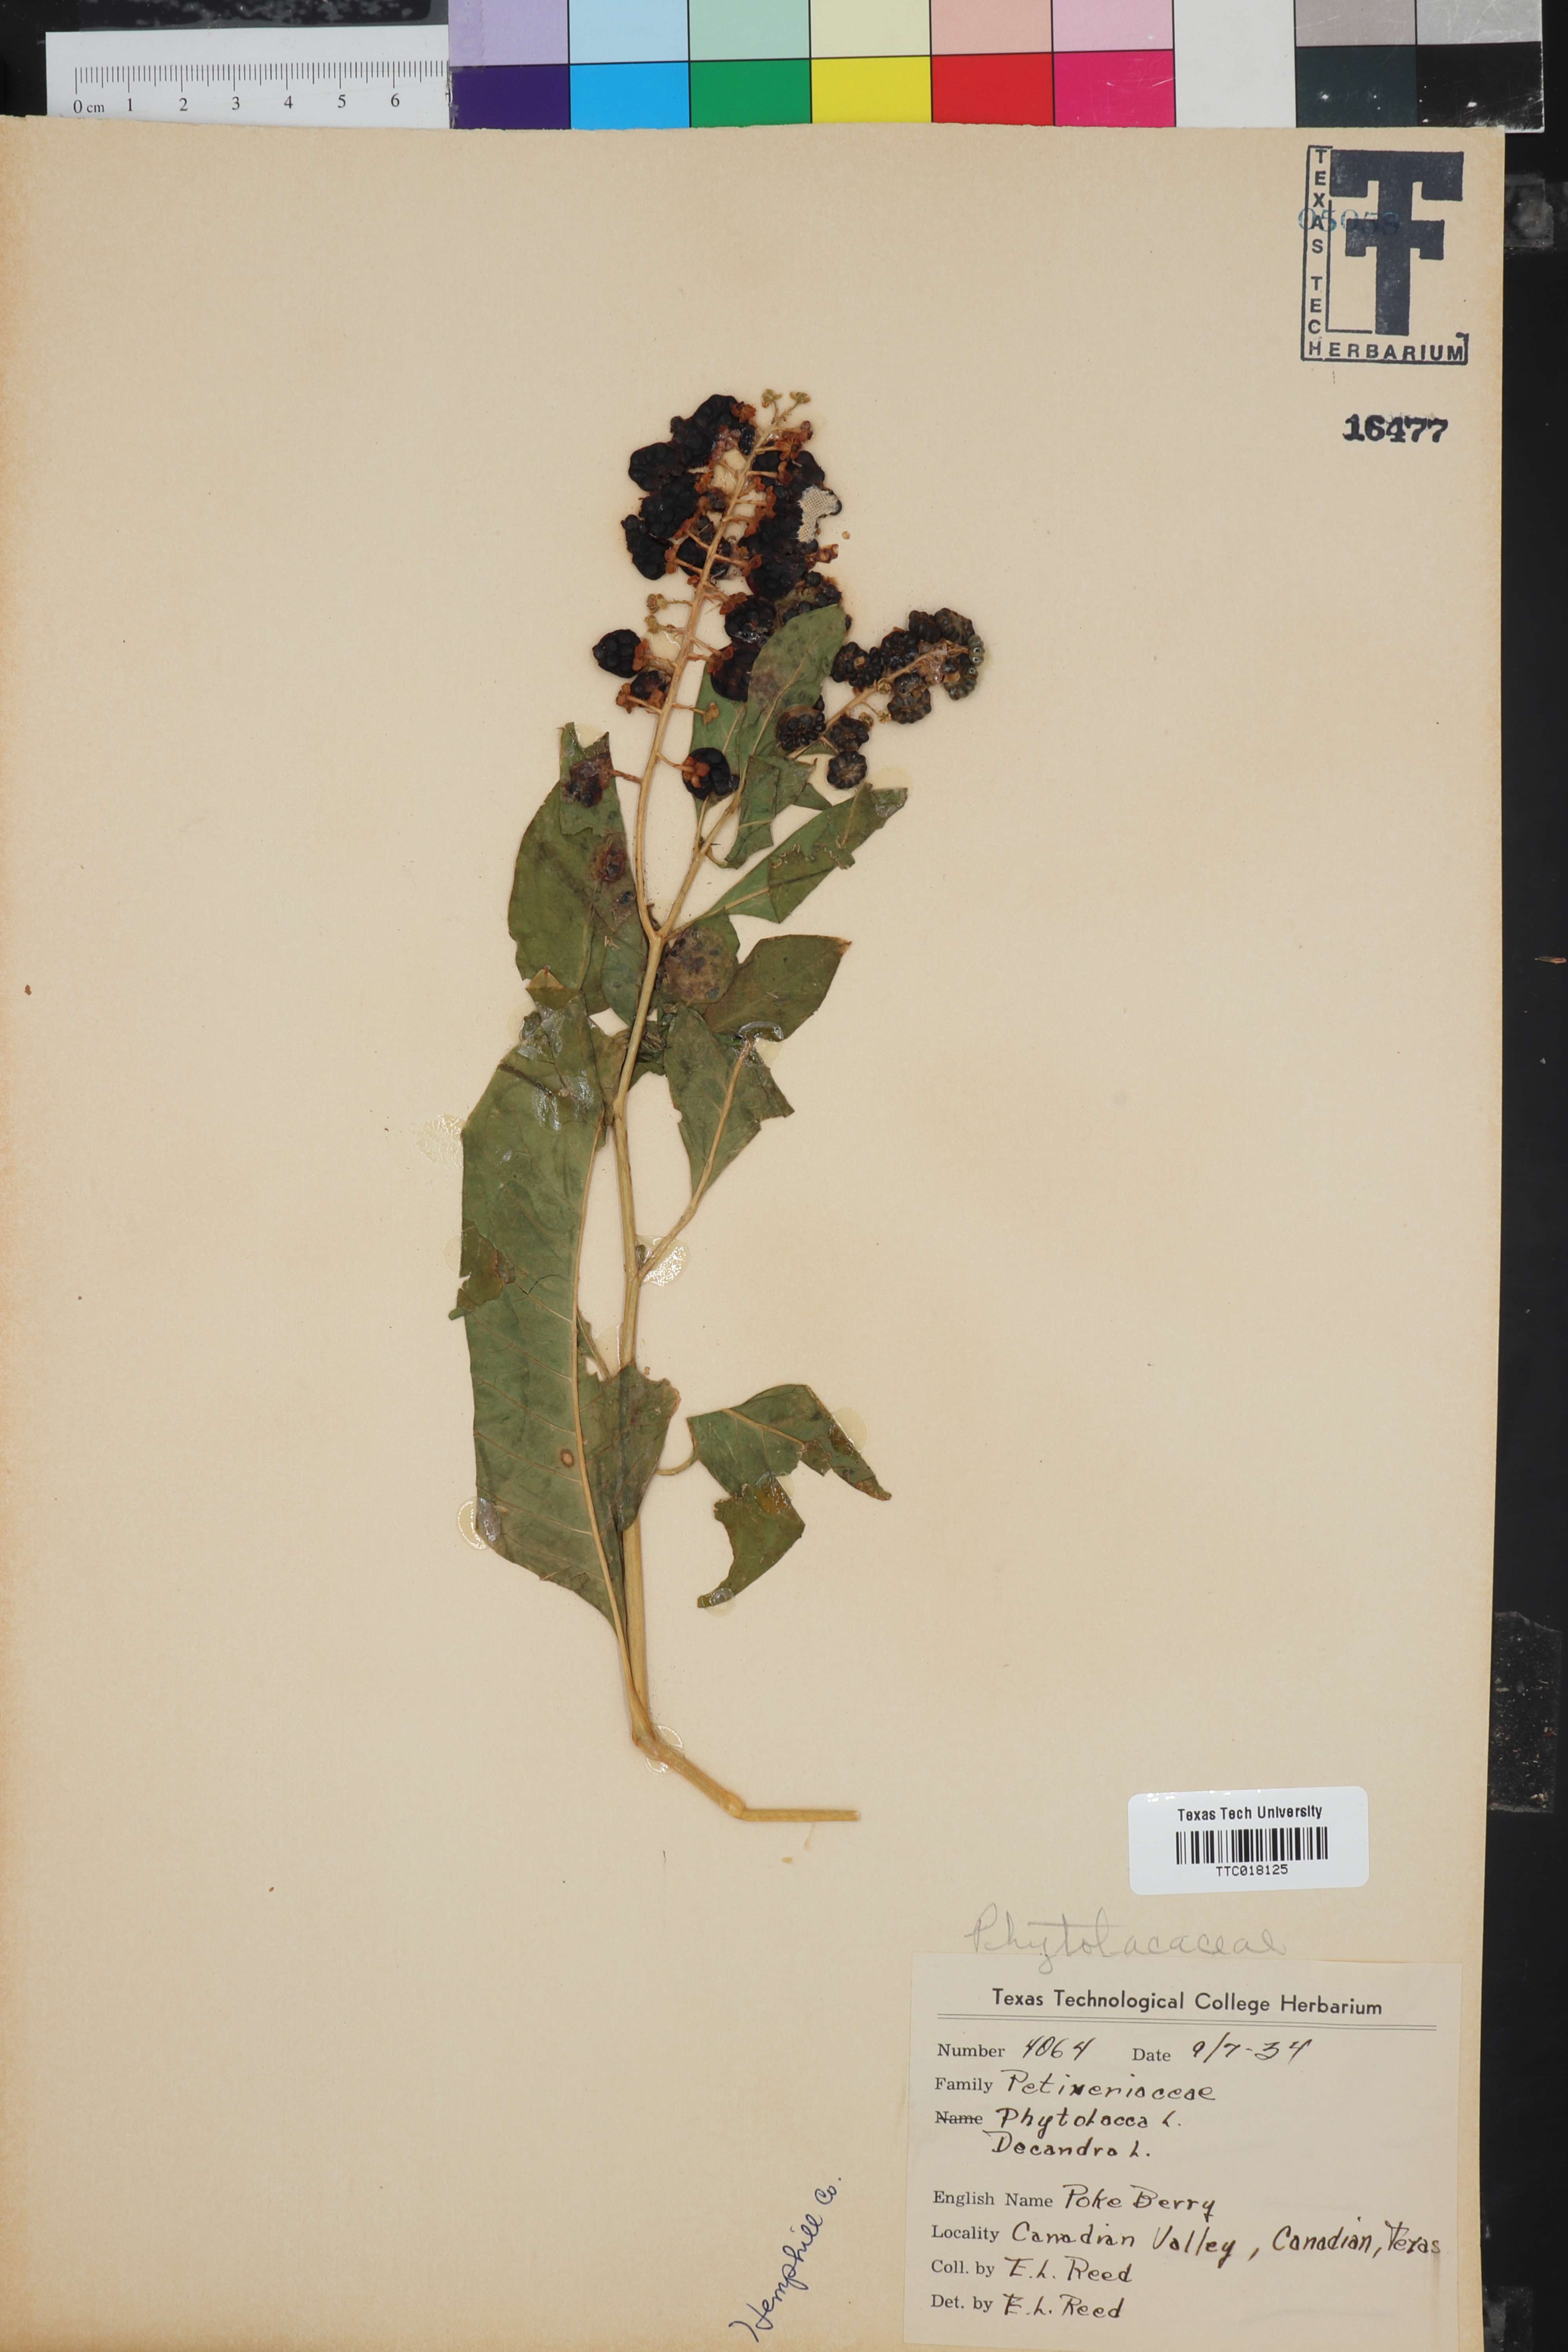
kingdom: Plantae
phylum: Tracheophyta
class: Magnoliopsida
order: Caryophyllales
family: Phytolaccaceae
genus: Phytolacca
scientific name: Phytolacca americana
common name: American pokeweed
